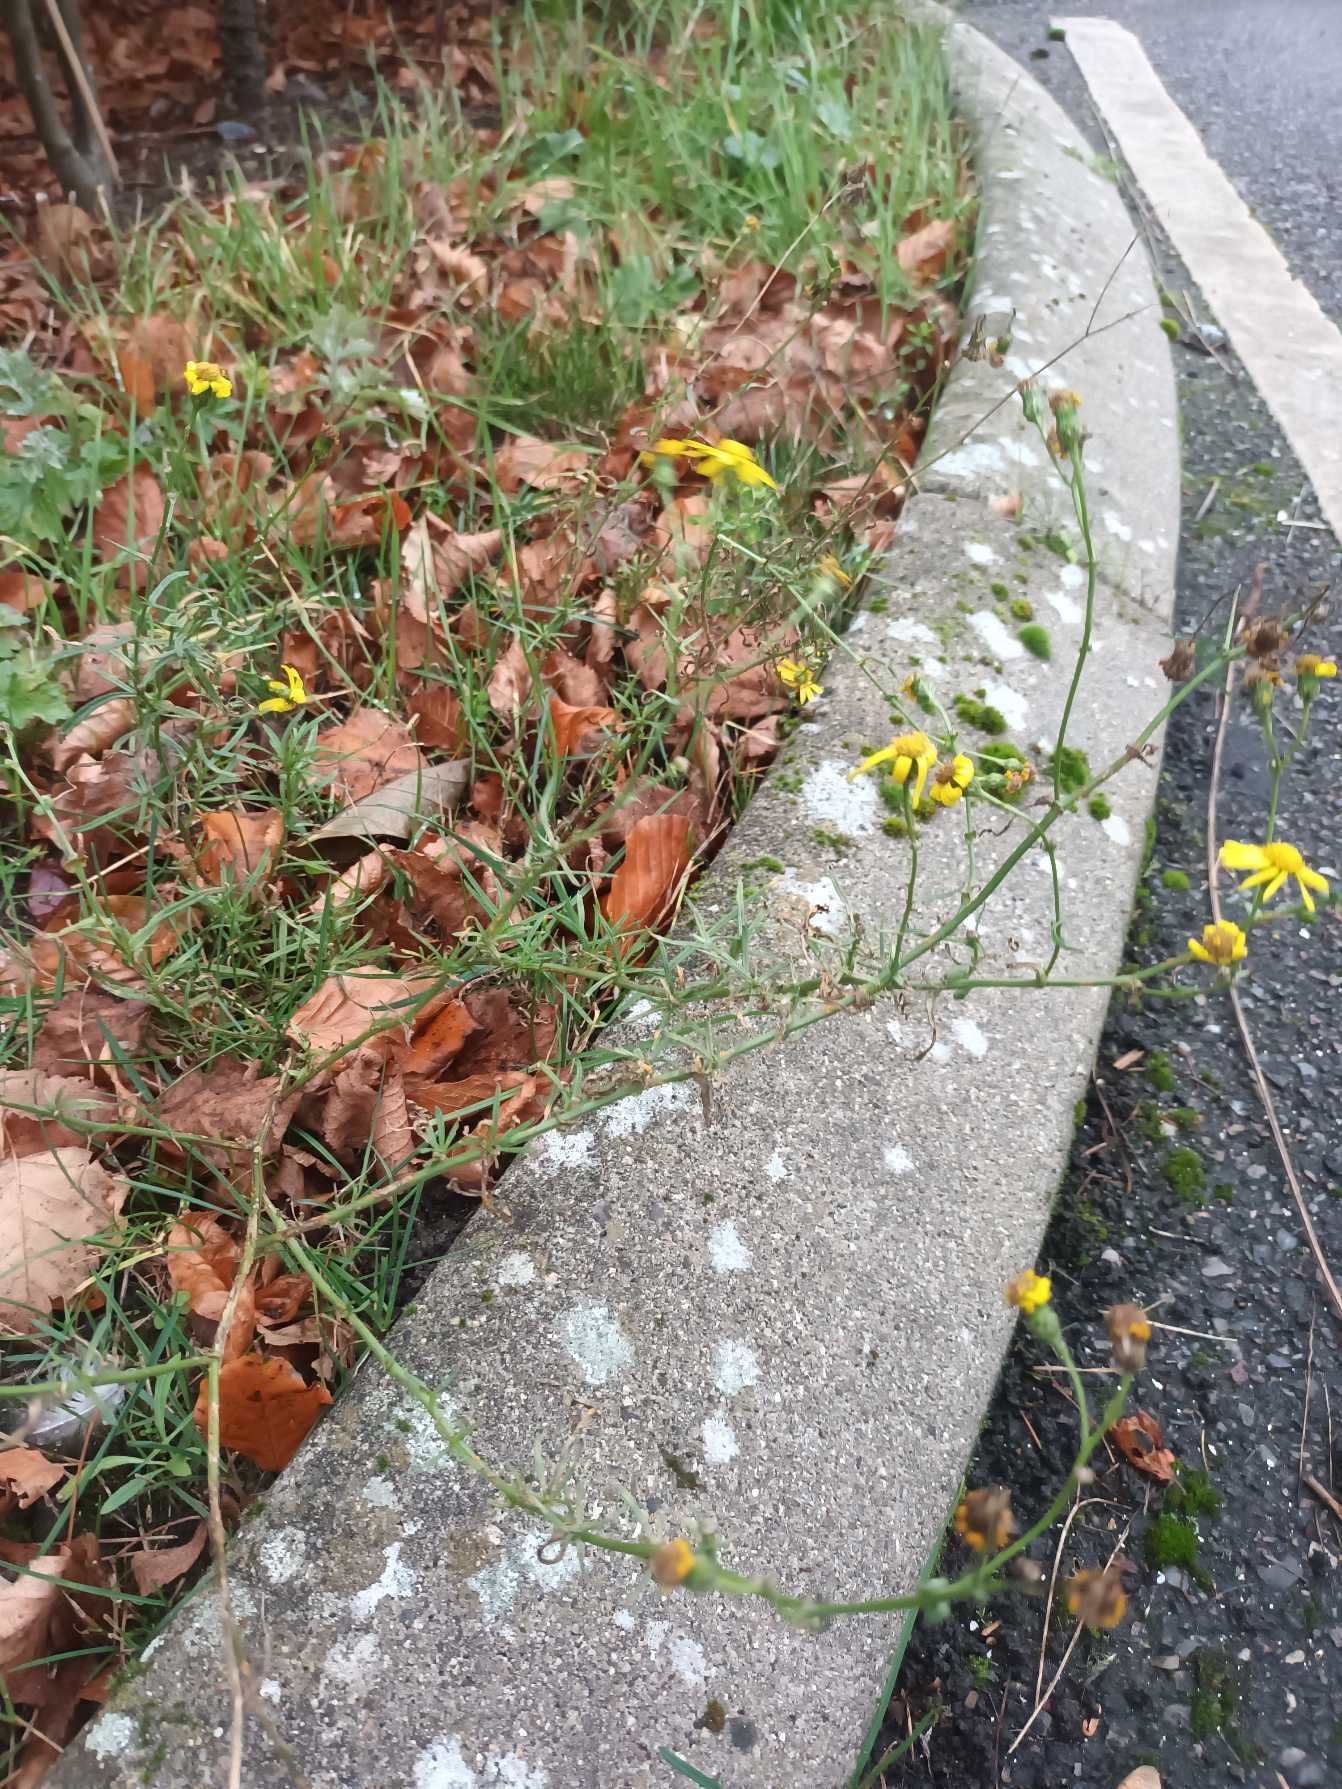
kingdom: Plantae
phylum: Tracheophyta
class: Magnoliopsida
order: Asterales
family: Asteraceae
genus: Senecio
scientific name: Senecio inaequidens
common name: Smalbladet brandbæger
